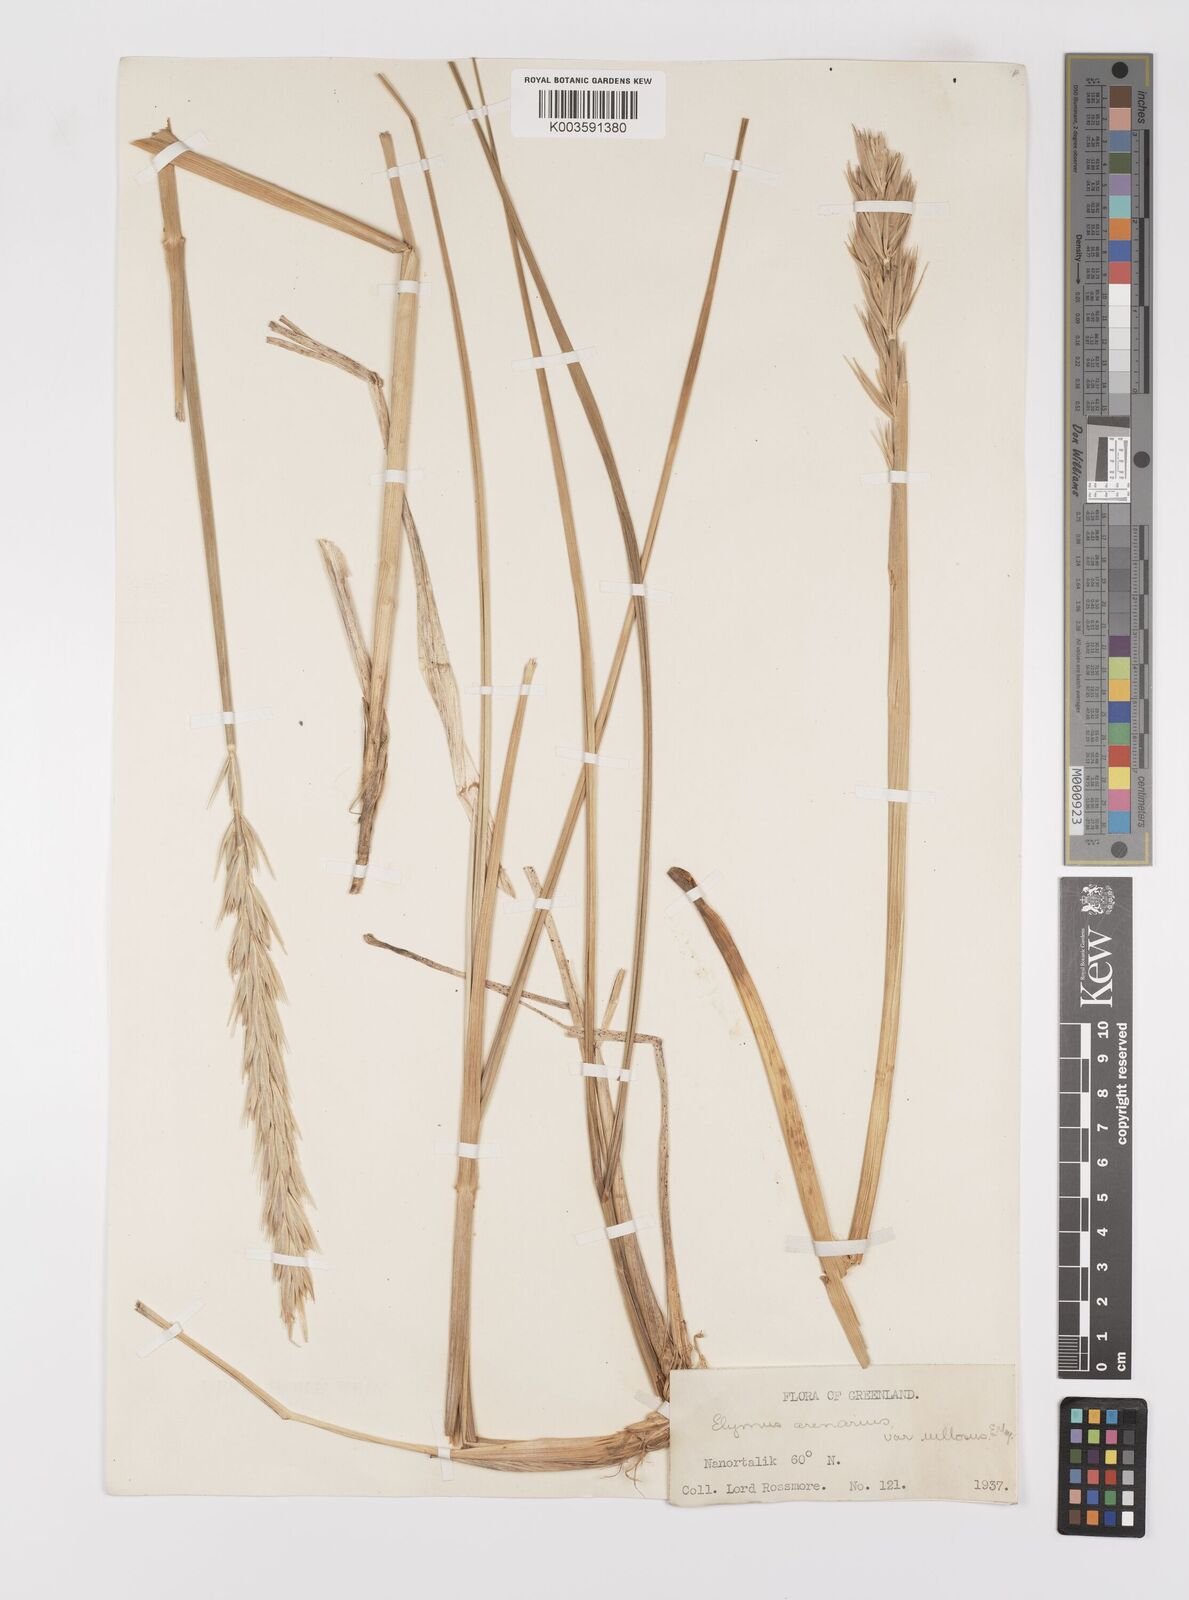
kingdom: Plantae
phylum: Tracheophyta
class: Liliopsida
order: Poales
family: Poaceae
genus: Leymus
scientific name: Leymus mollis
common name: American dune grass
